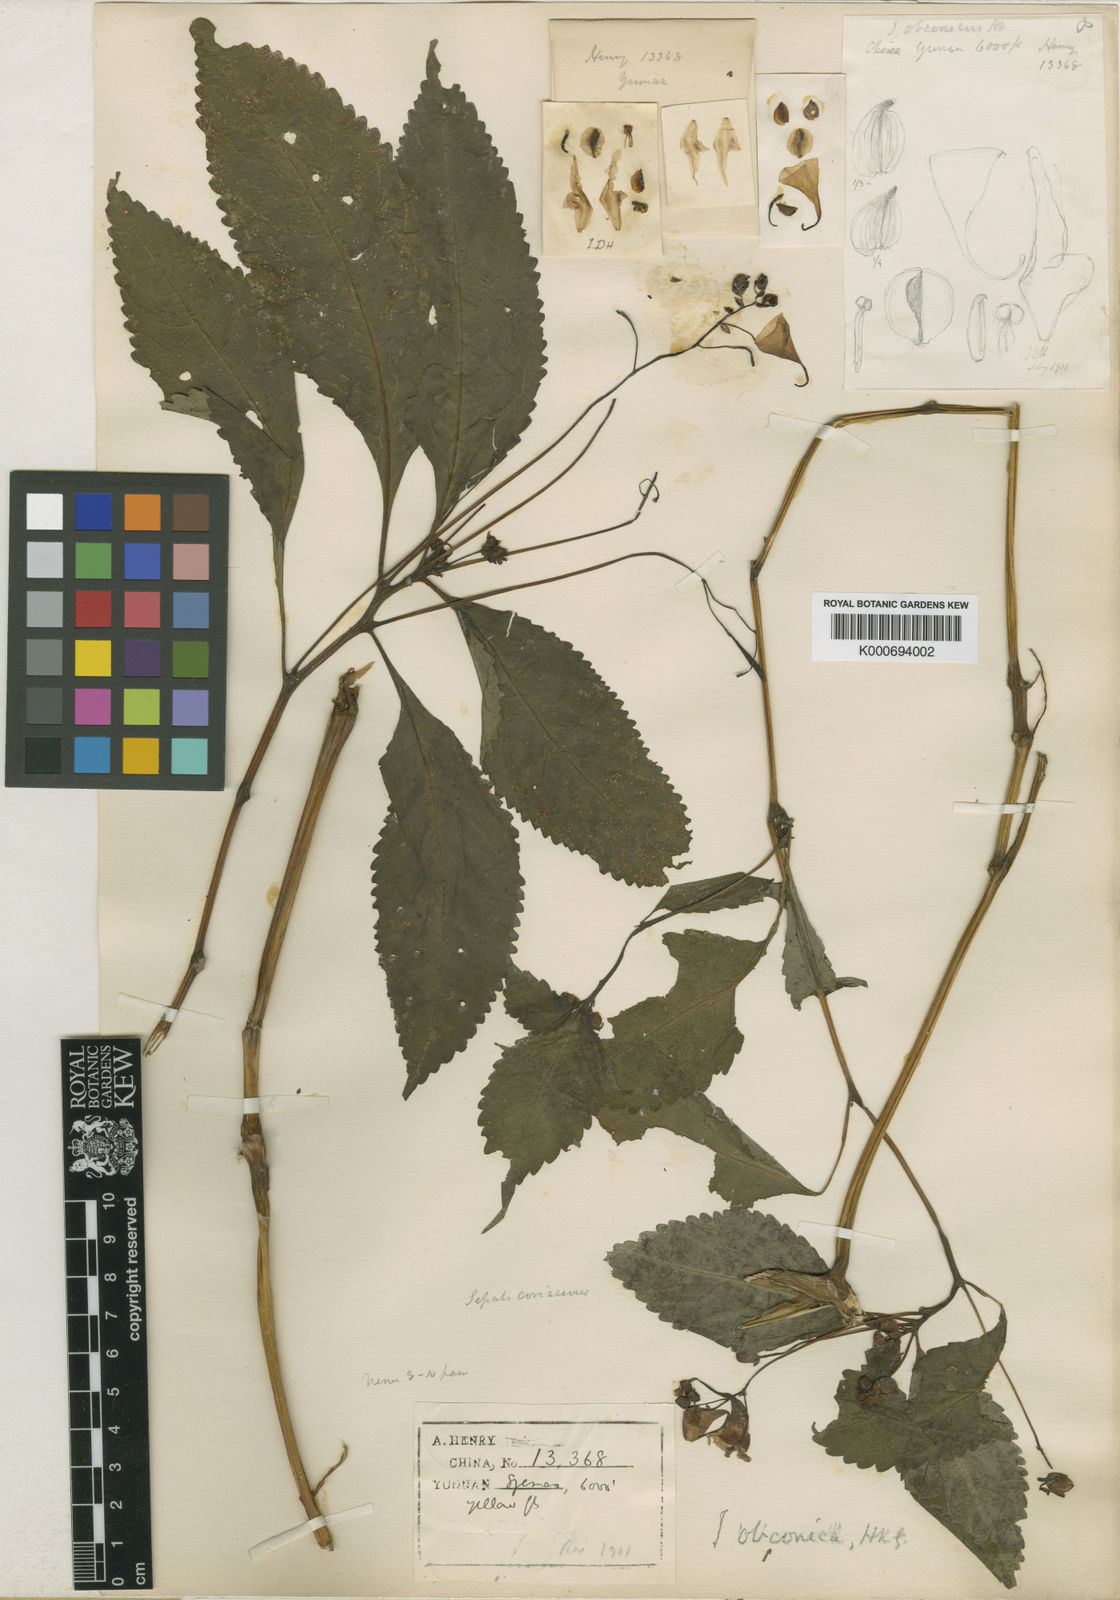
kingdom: Plantae
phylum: Tracheophyta
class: Magnoliopsida
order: Ericales
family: Balsaminaceae
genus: Impatiens
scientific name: Impatiens
